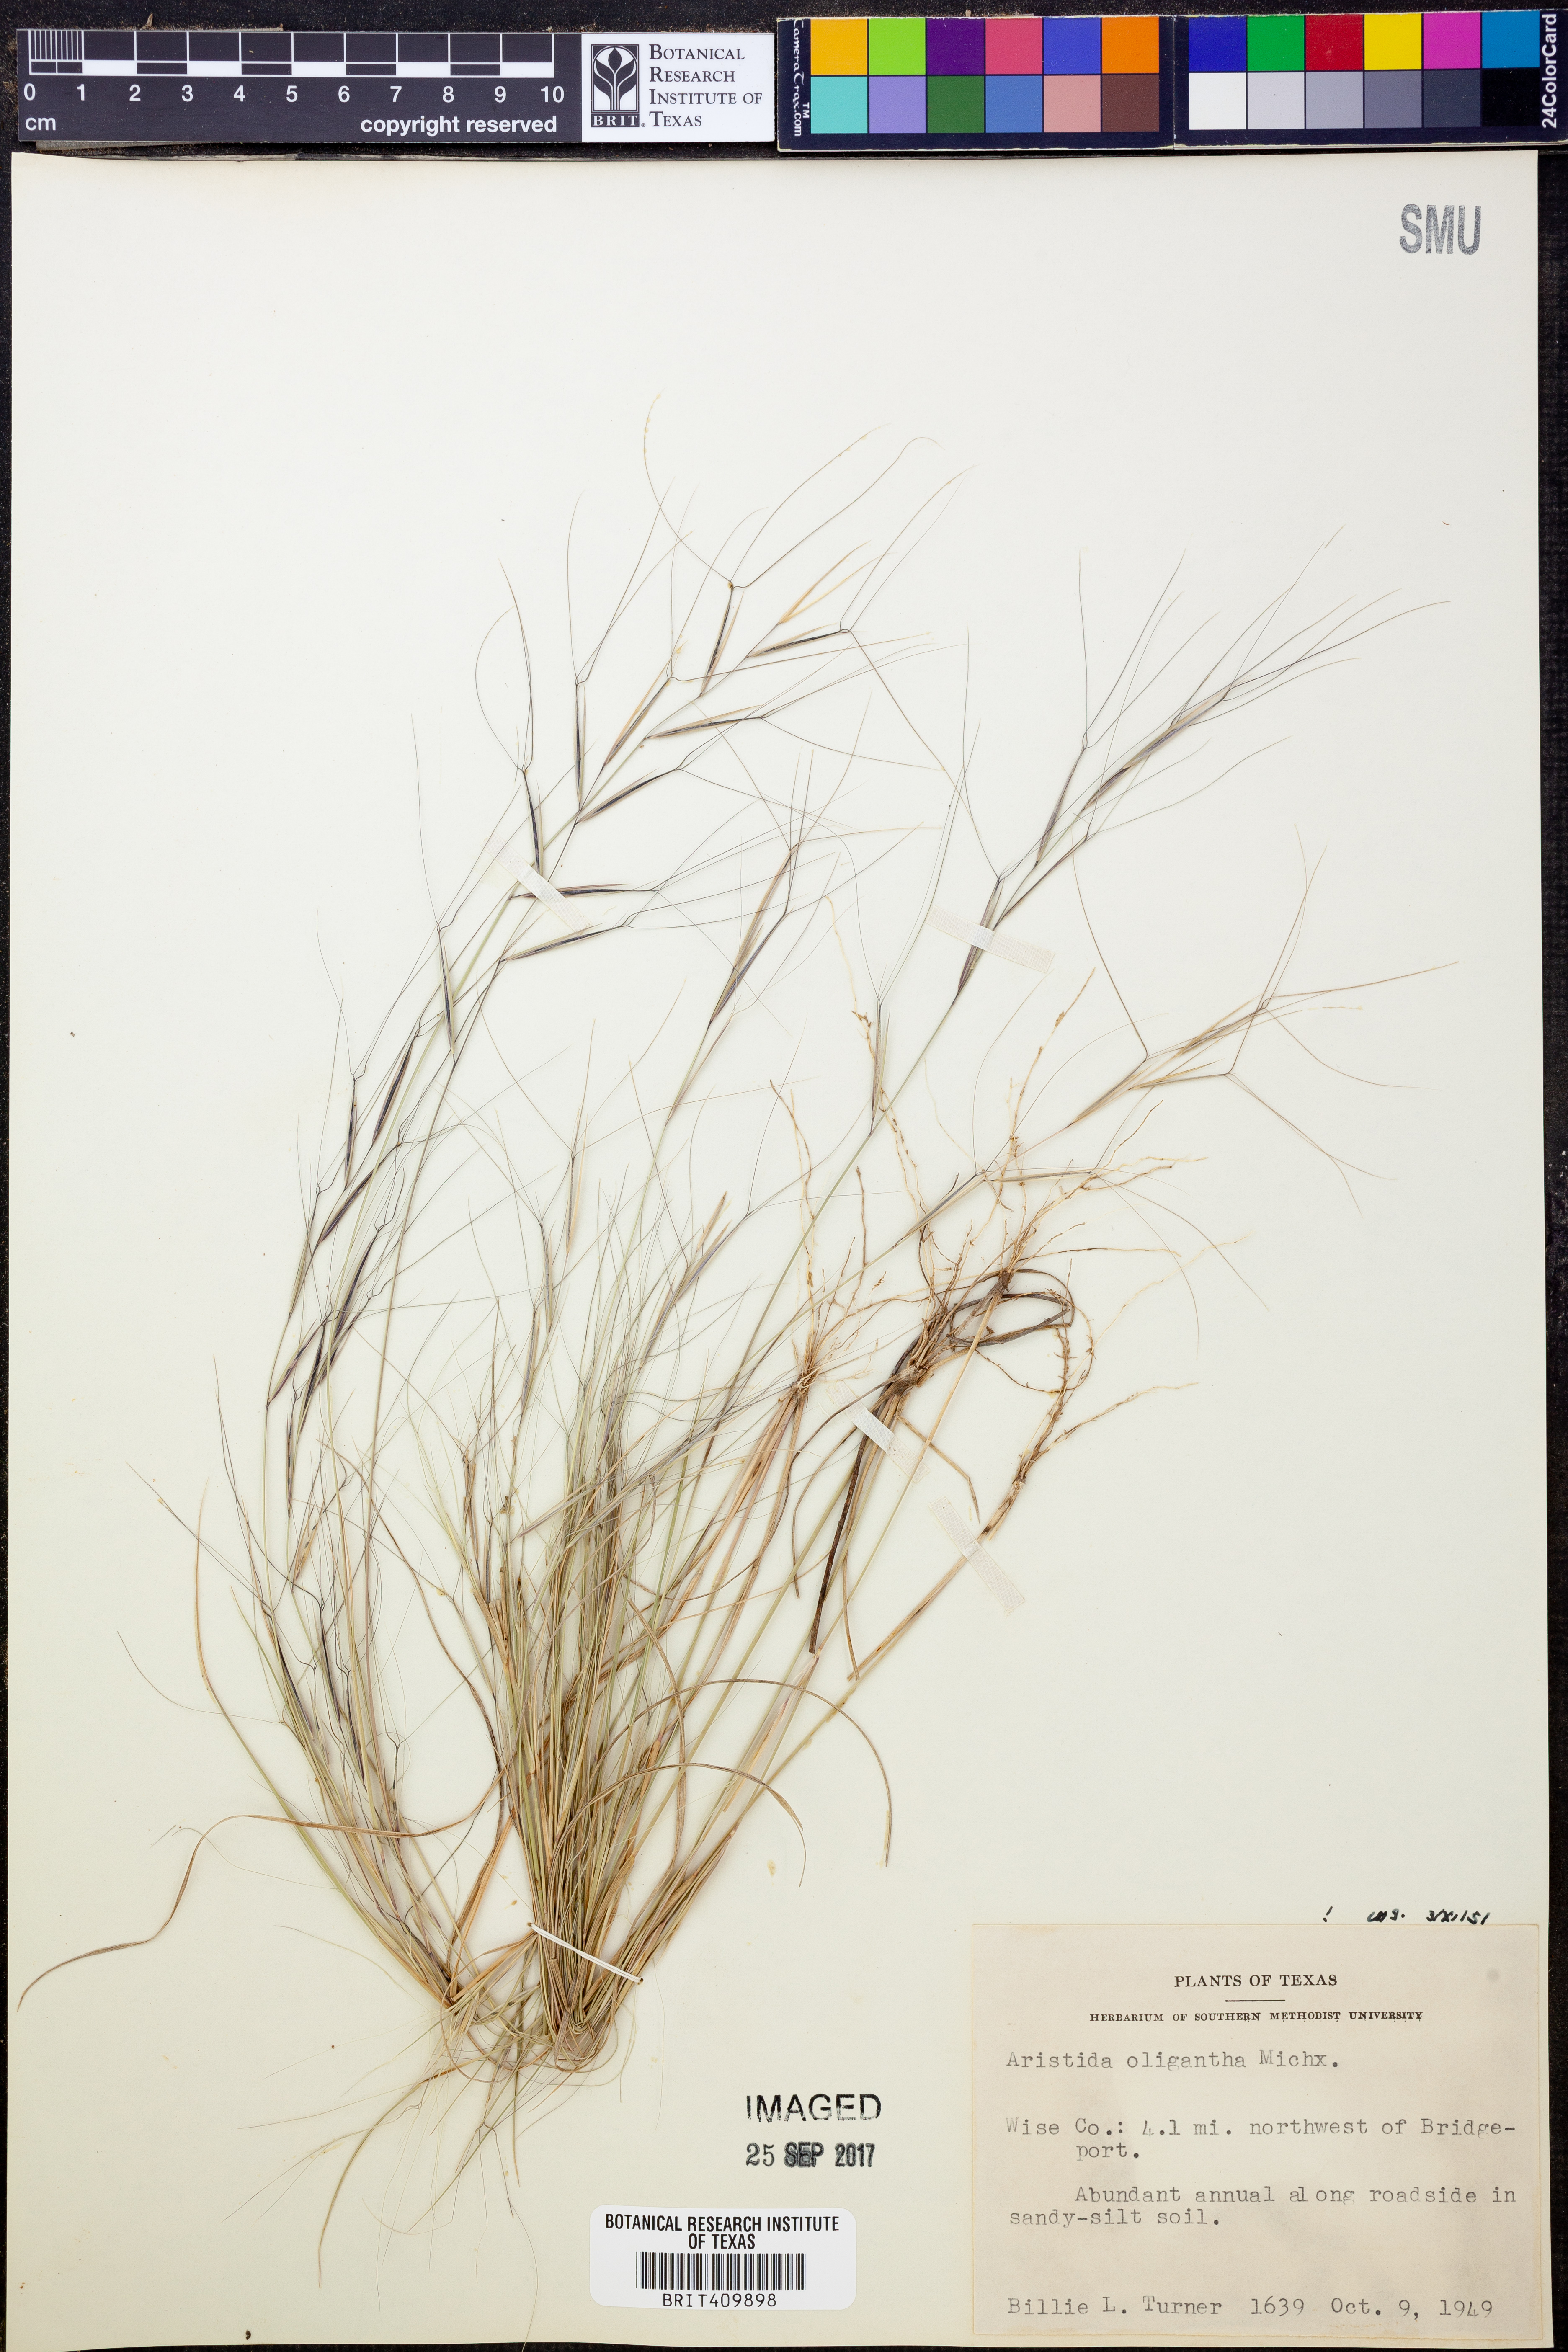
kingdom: Plantae
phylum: Tracheophyta
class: Liliopsida
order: Poales
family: Poaceae
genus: Aristida
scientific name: Aristida oligantha
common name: Few-flowered aristida
